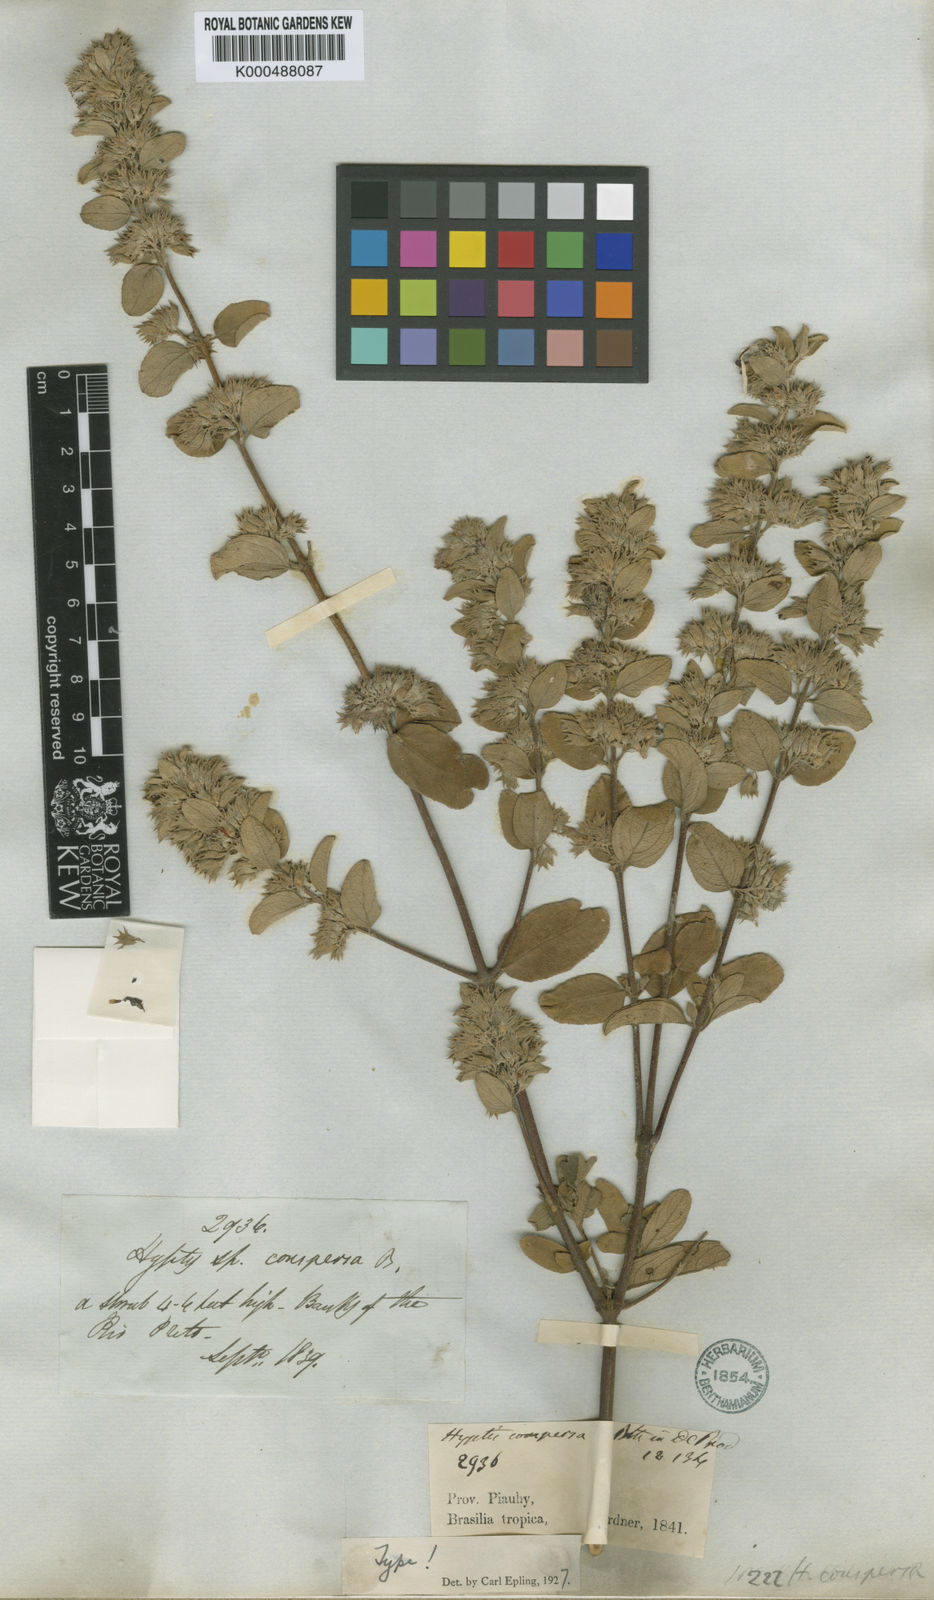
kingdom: Plantae
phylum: Tracheophyta
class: Magnoliopsida
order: Lamiales
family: Lamiaceae
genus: Hyptidendron
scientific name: Hyptidendron conspersum
